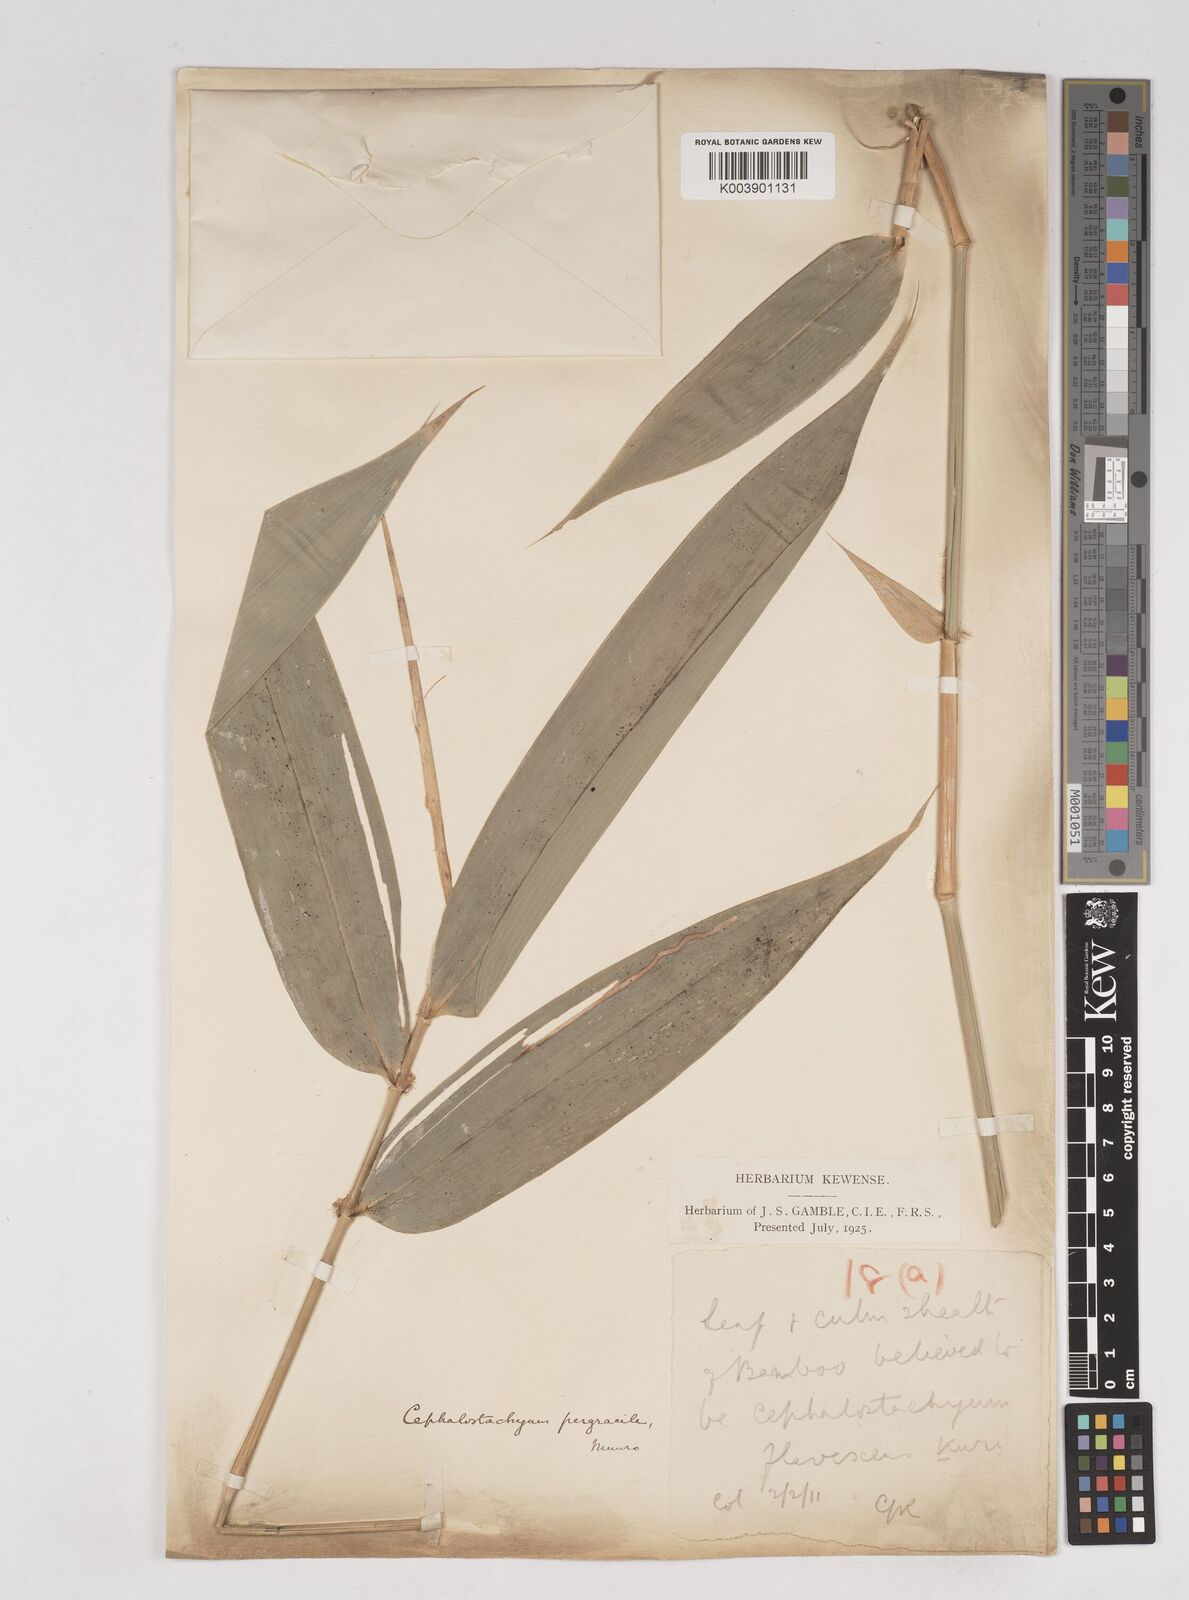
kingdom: Plantae
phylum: Tracheophyta
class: Liliopsida
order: Poales
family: Poaceae
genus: Cephalostachyum
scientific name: Cephalostachyum
